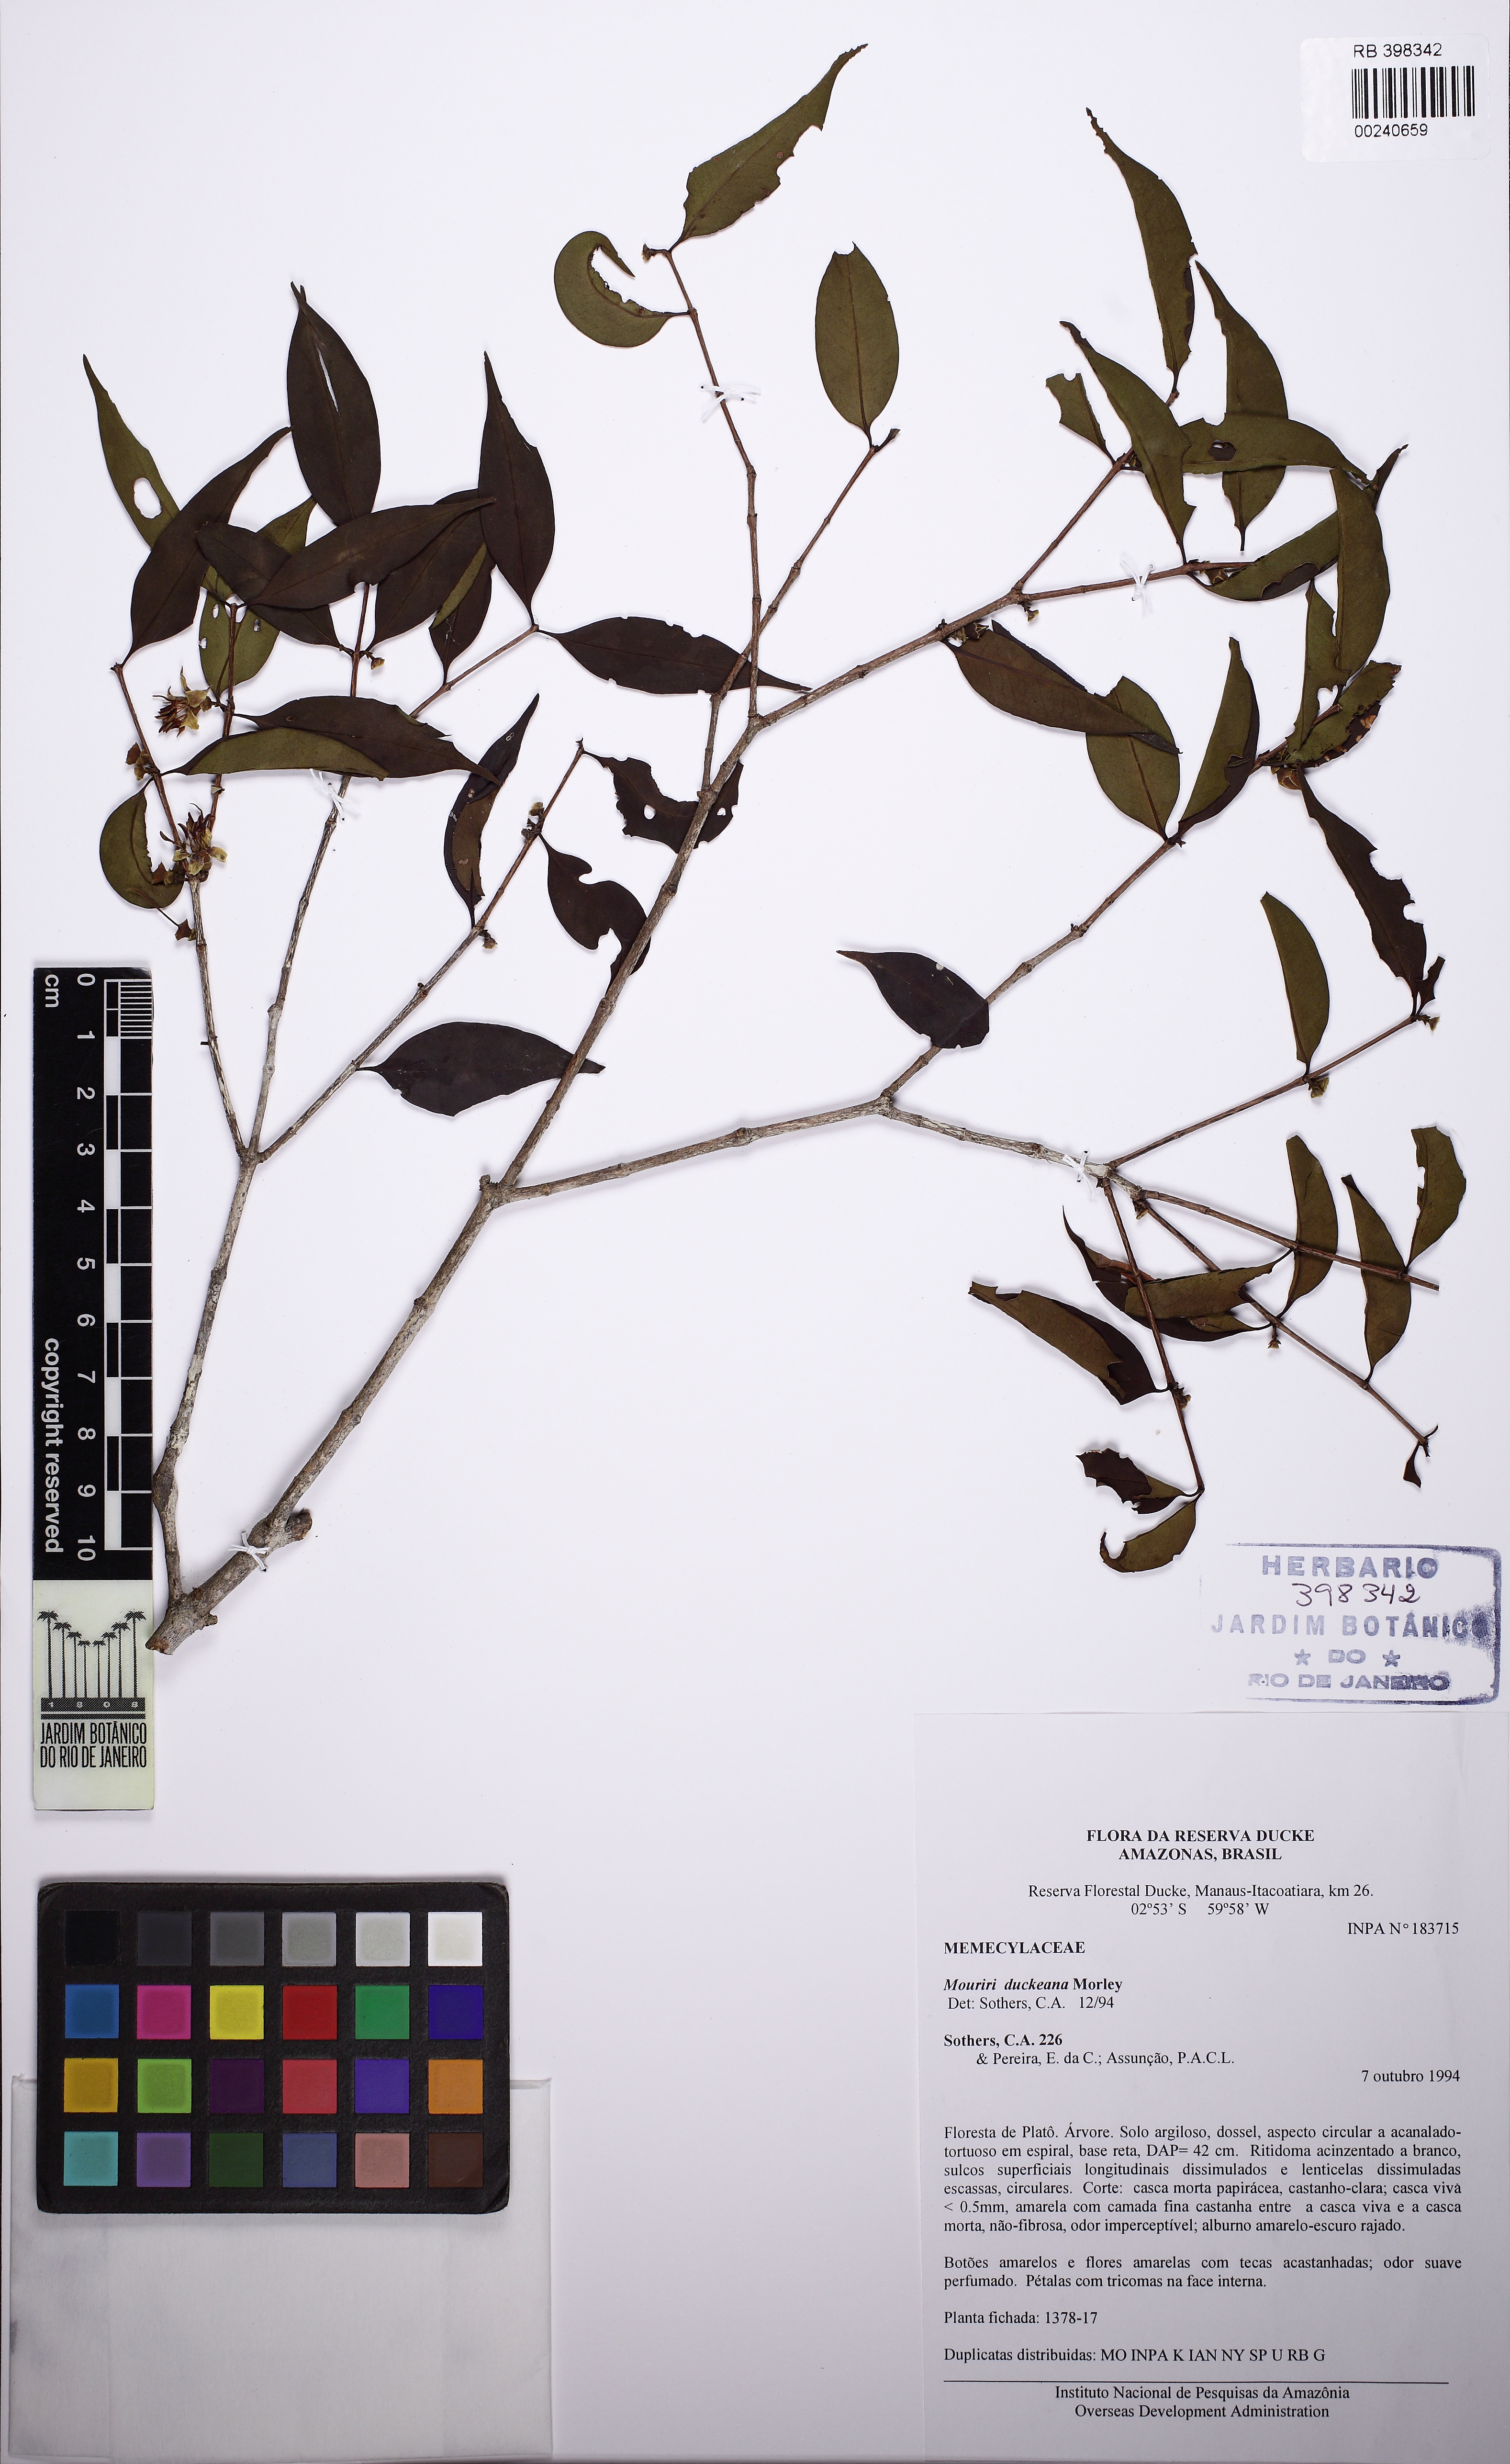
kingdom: Plantae
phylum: Tracheophyta
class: Magnoliopsida
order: Myrtales
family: Melastomataceae
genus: Mouriri
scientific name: Mouriri duckeana
